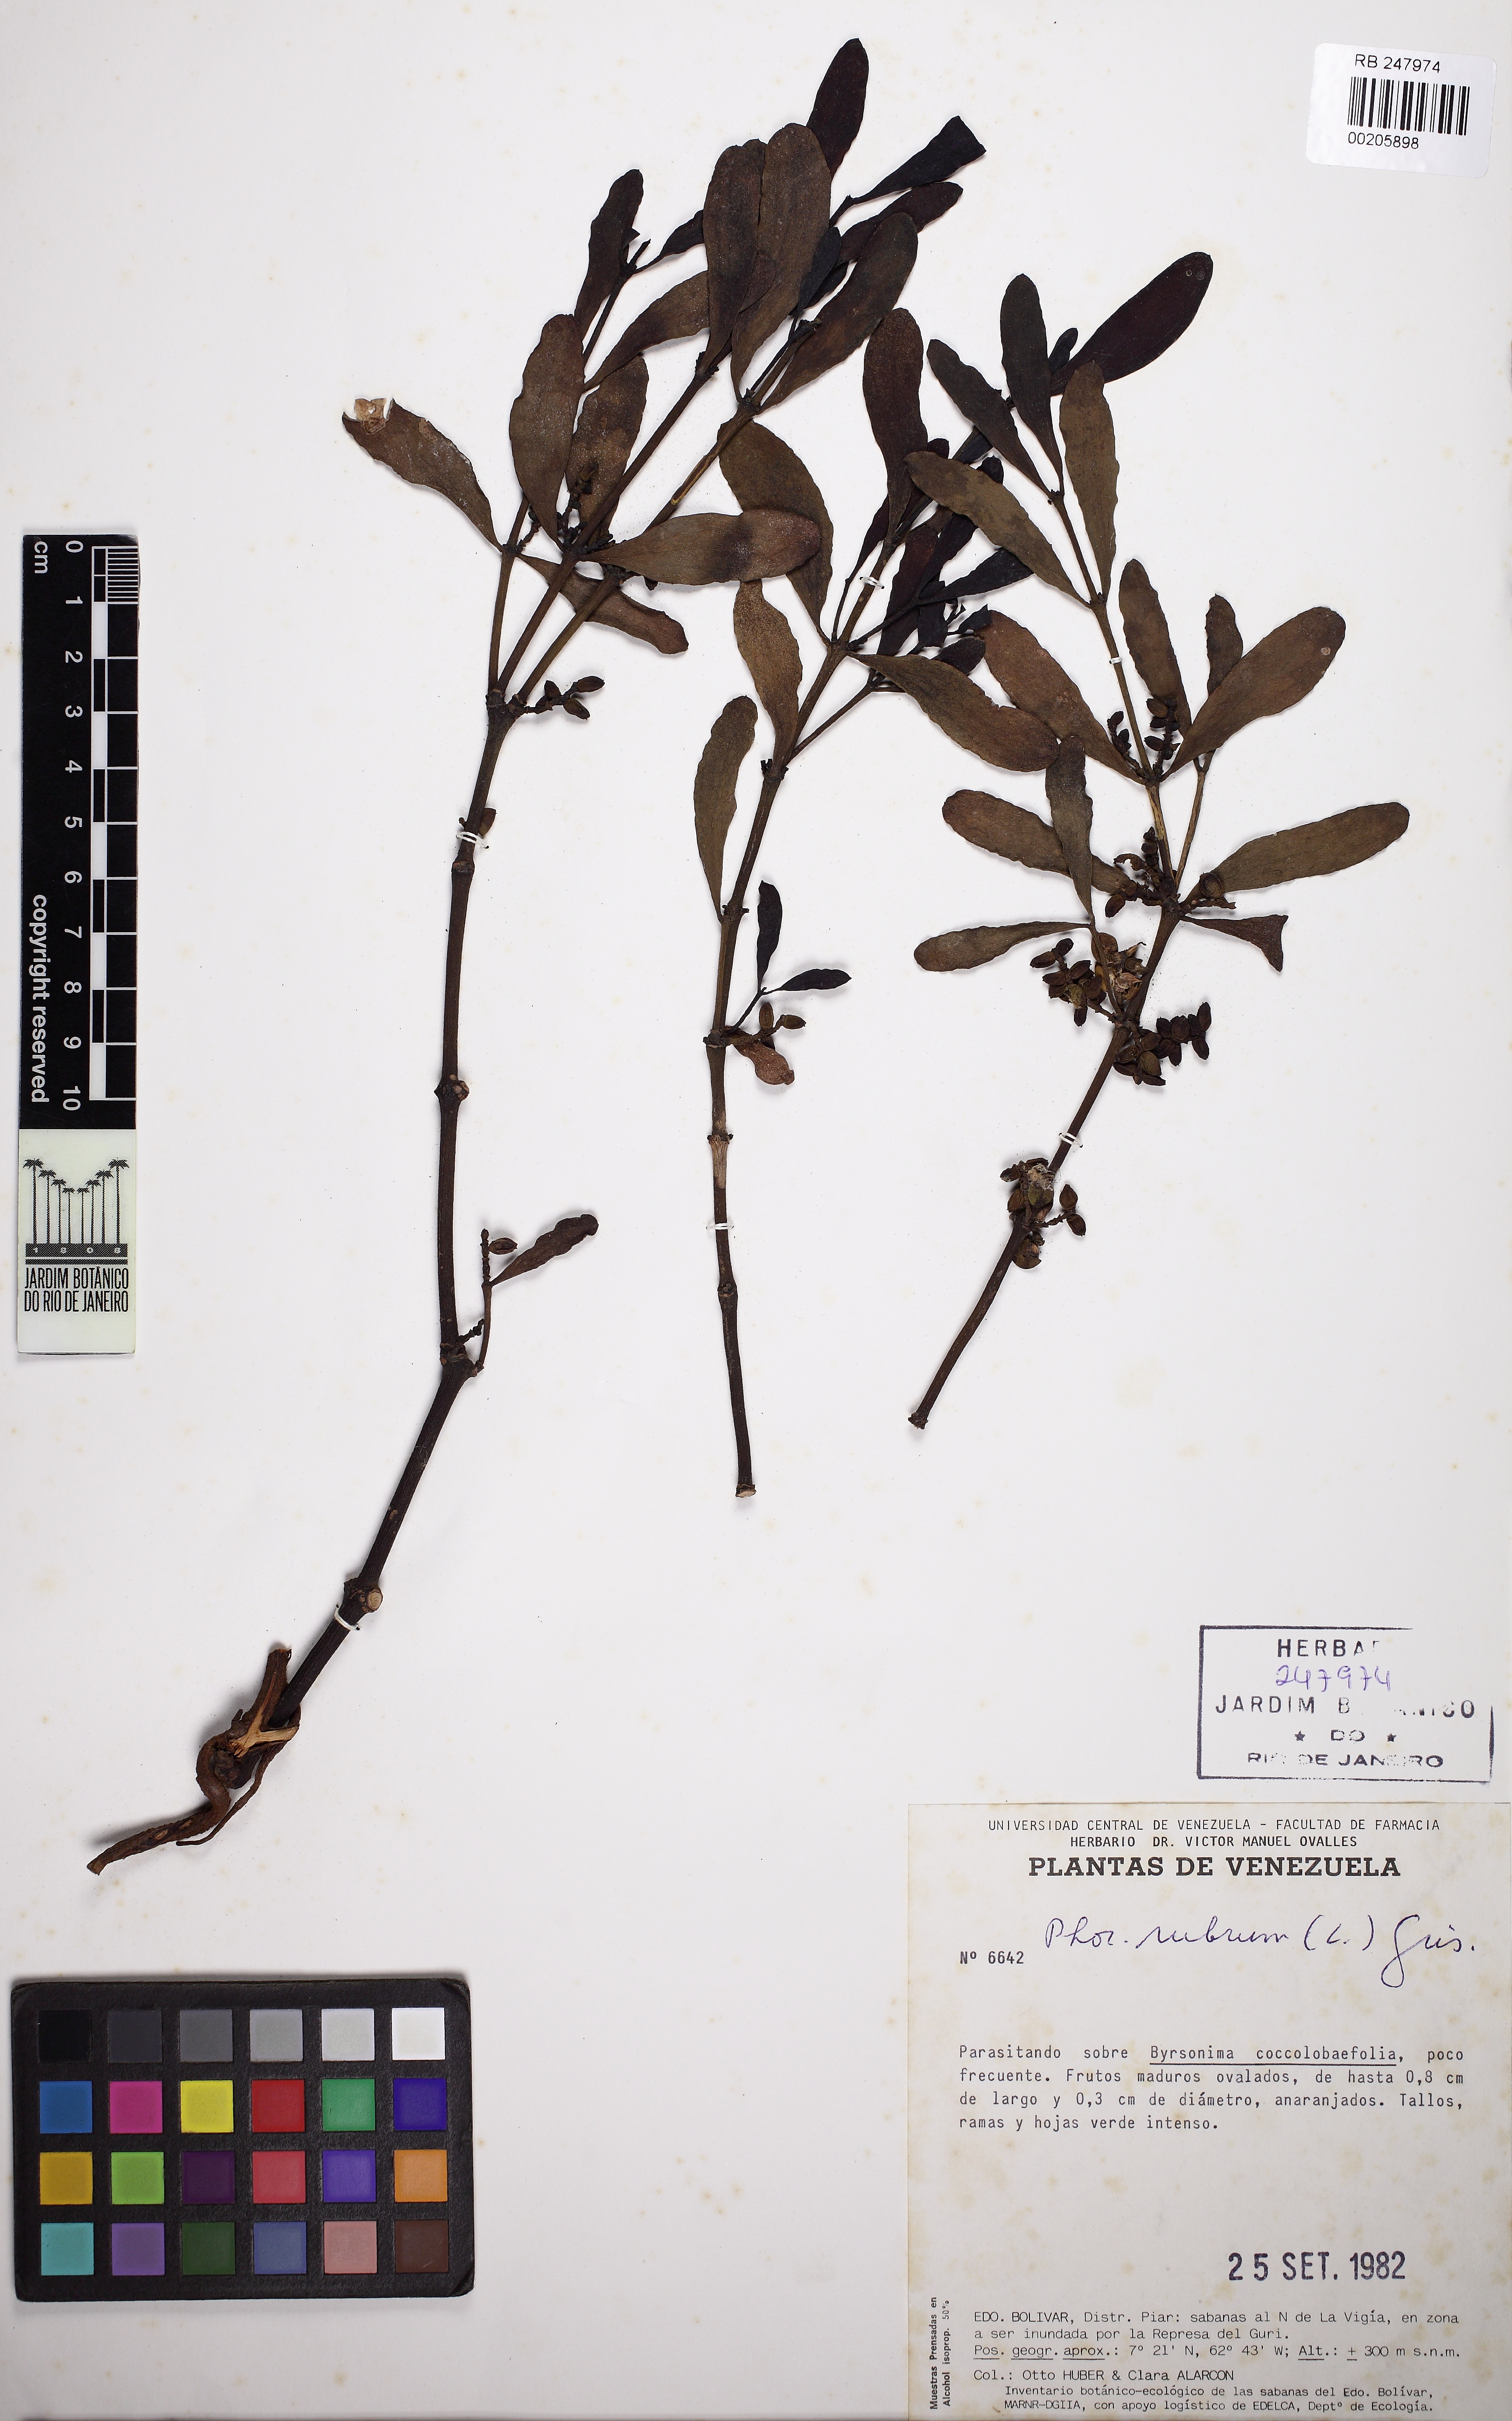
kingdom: Plantae
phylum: Tracheophyta
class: Magnoliopsida
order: Santalales
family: Viscaceae
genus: Phoradendron
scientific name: Phoradendron rubrum
